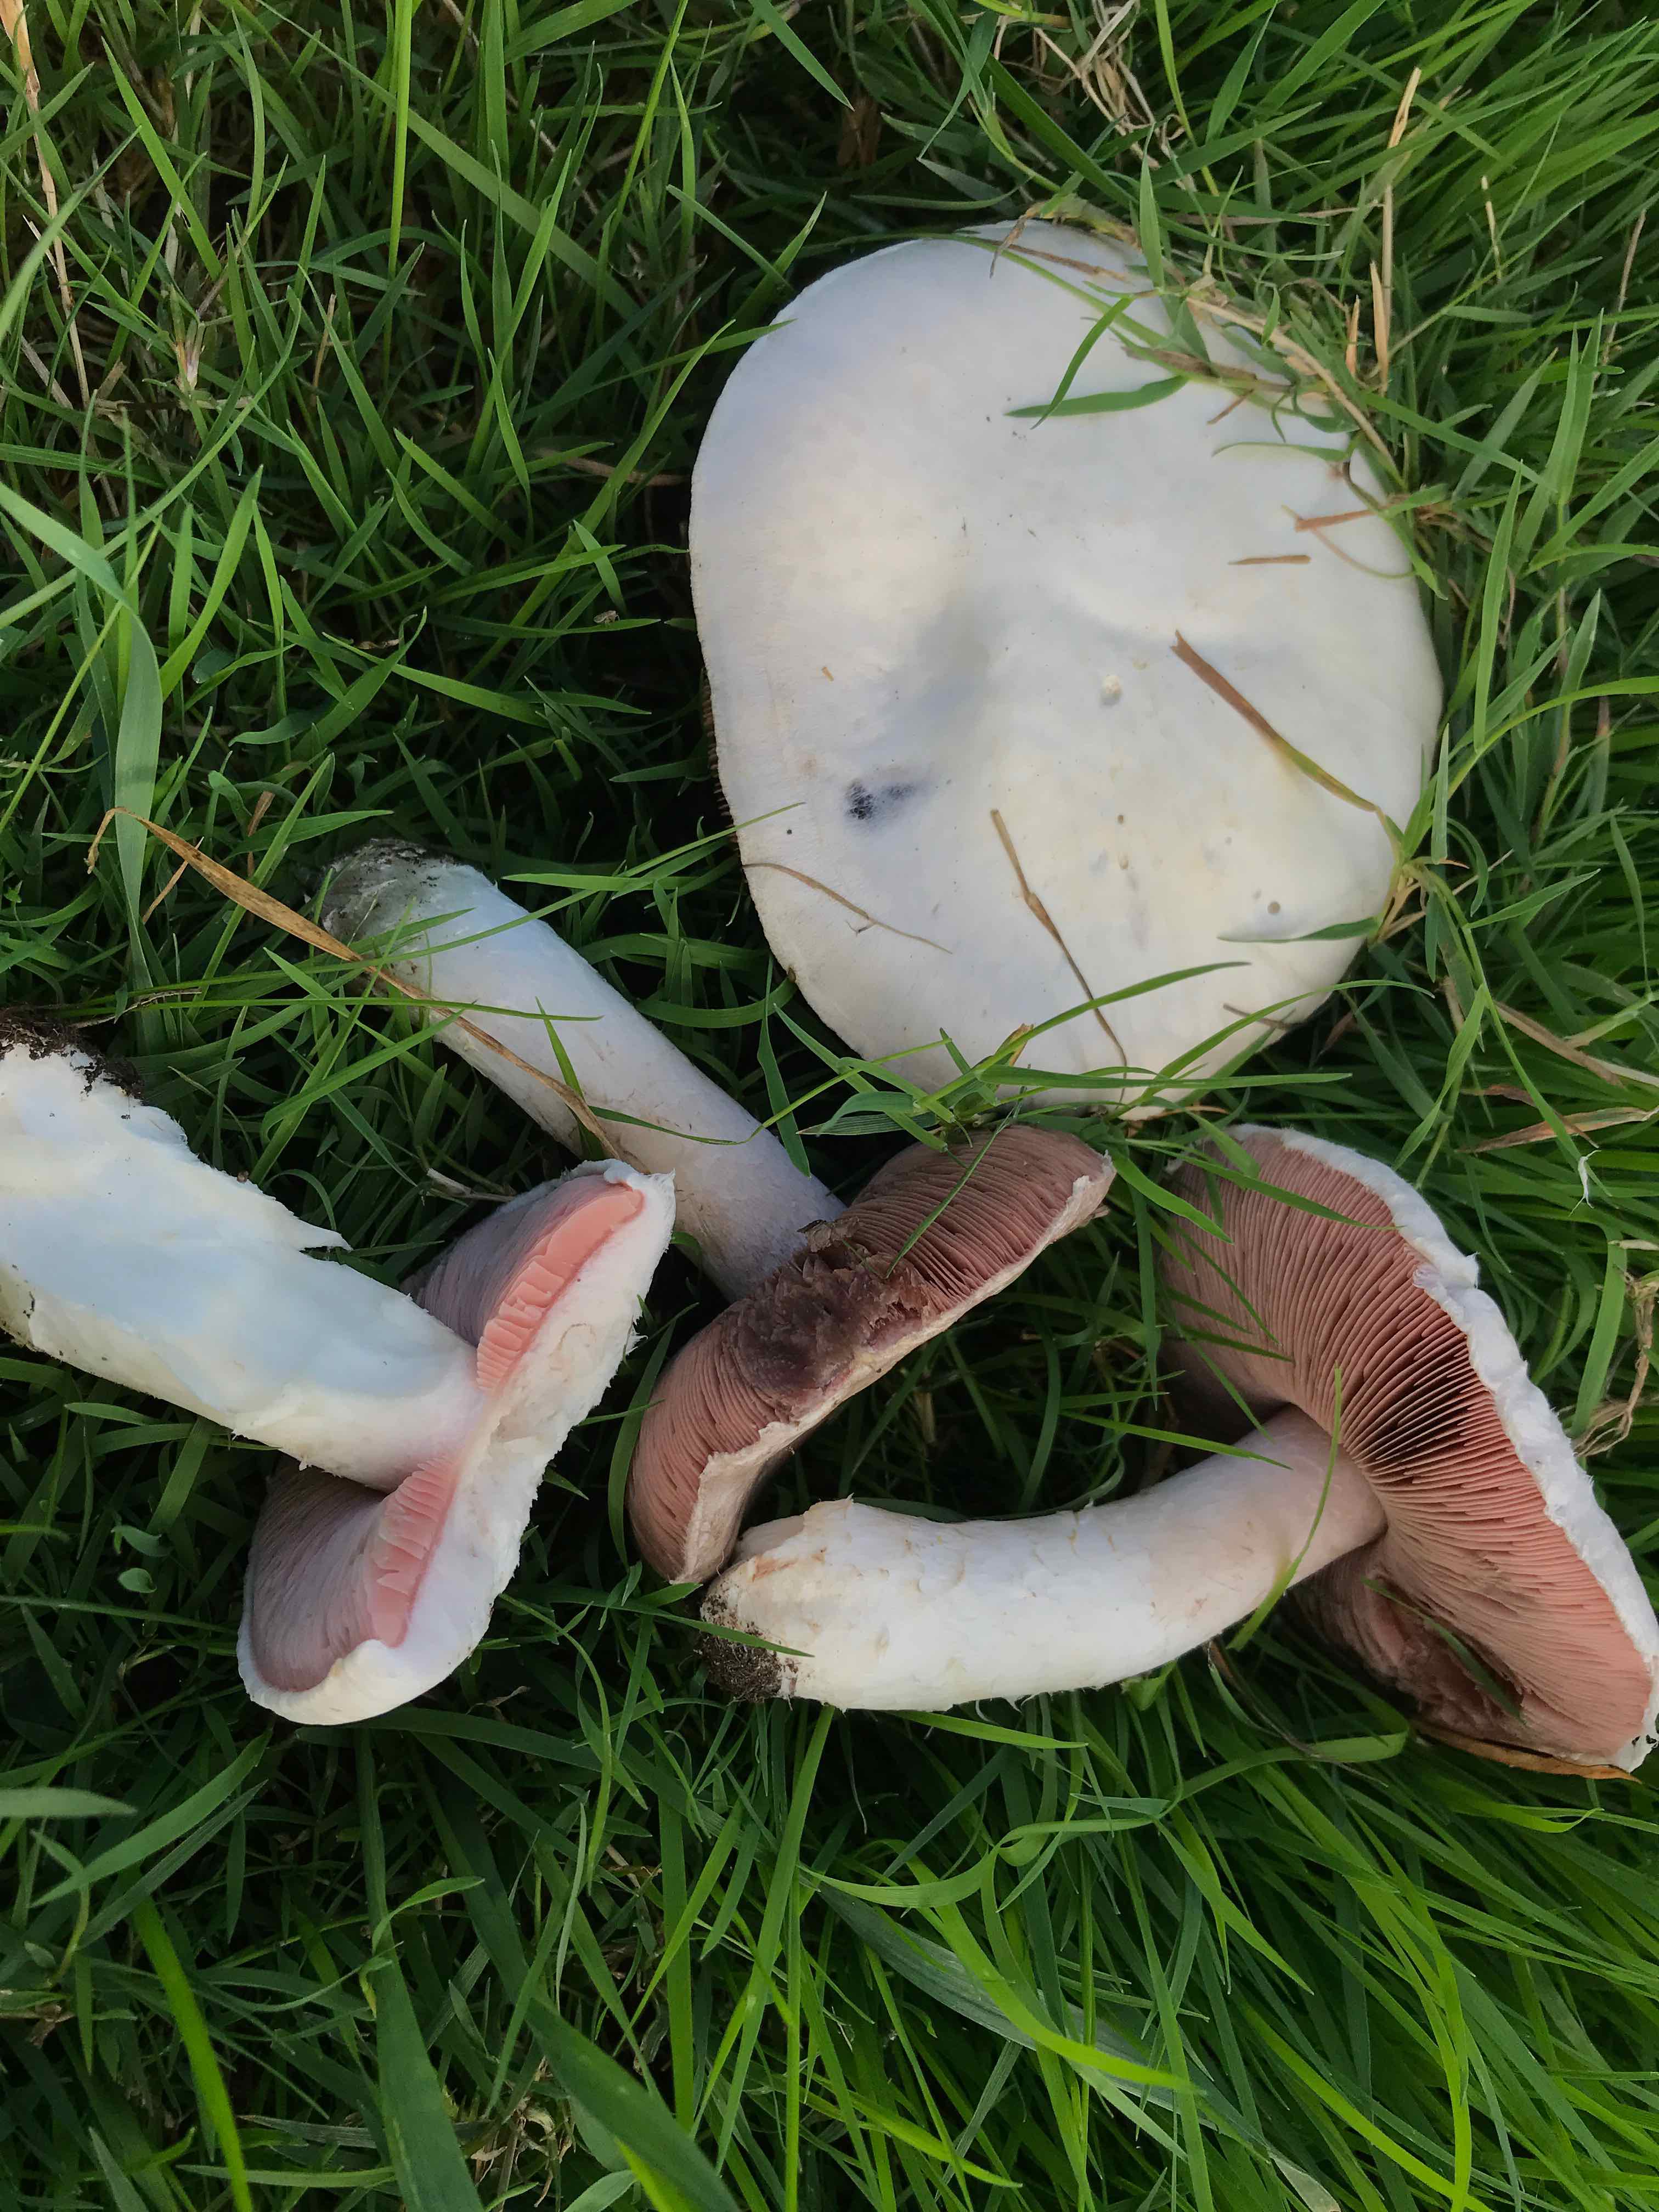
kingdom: Fungi
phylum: Basidiomycota
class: Agaricomycetes
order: Agaricales
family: Agaricaceae
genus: Agaricus
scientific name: Agaricus campestris
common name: mark-champignon
